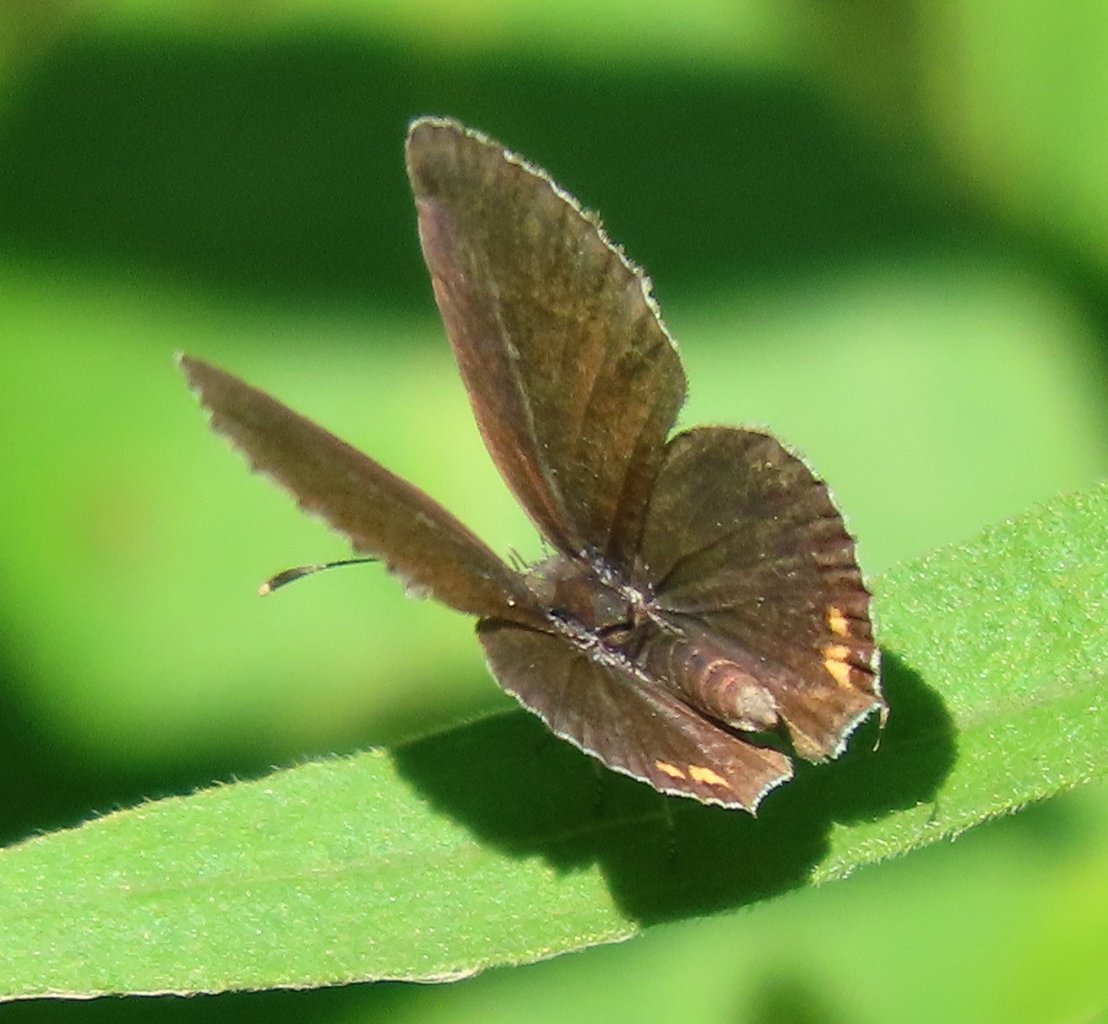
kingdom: Animalia
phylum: Arthropoda
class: Insecta
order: Lepidoptera
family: Lycaenidae
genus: Elkalyce
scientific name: Elkalyce comyntas
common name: Eastern Tailed-Blue
